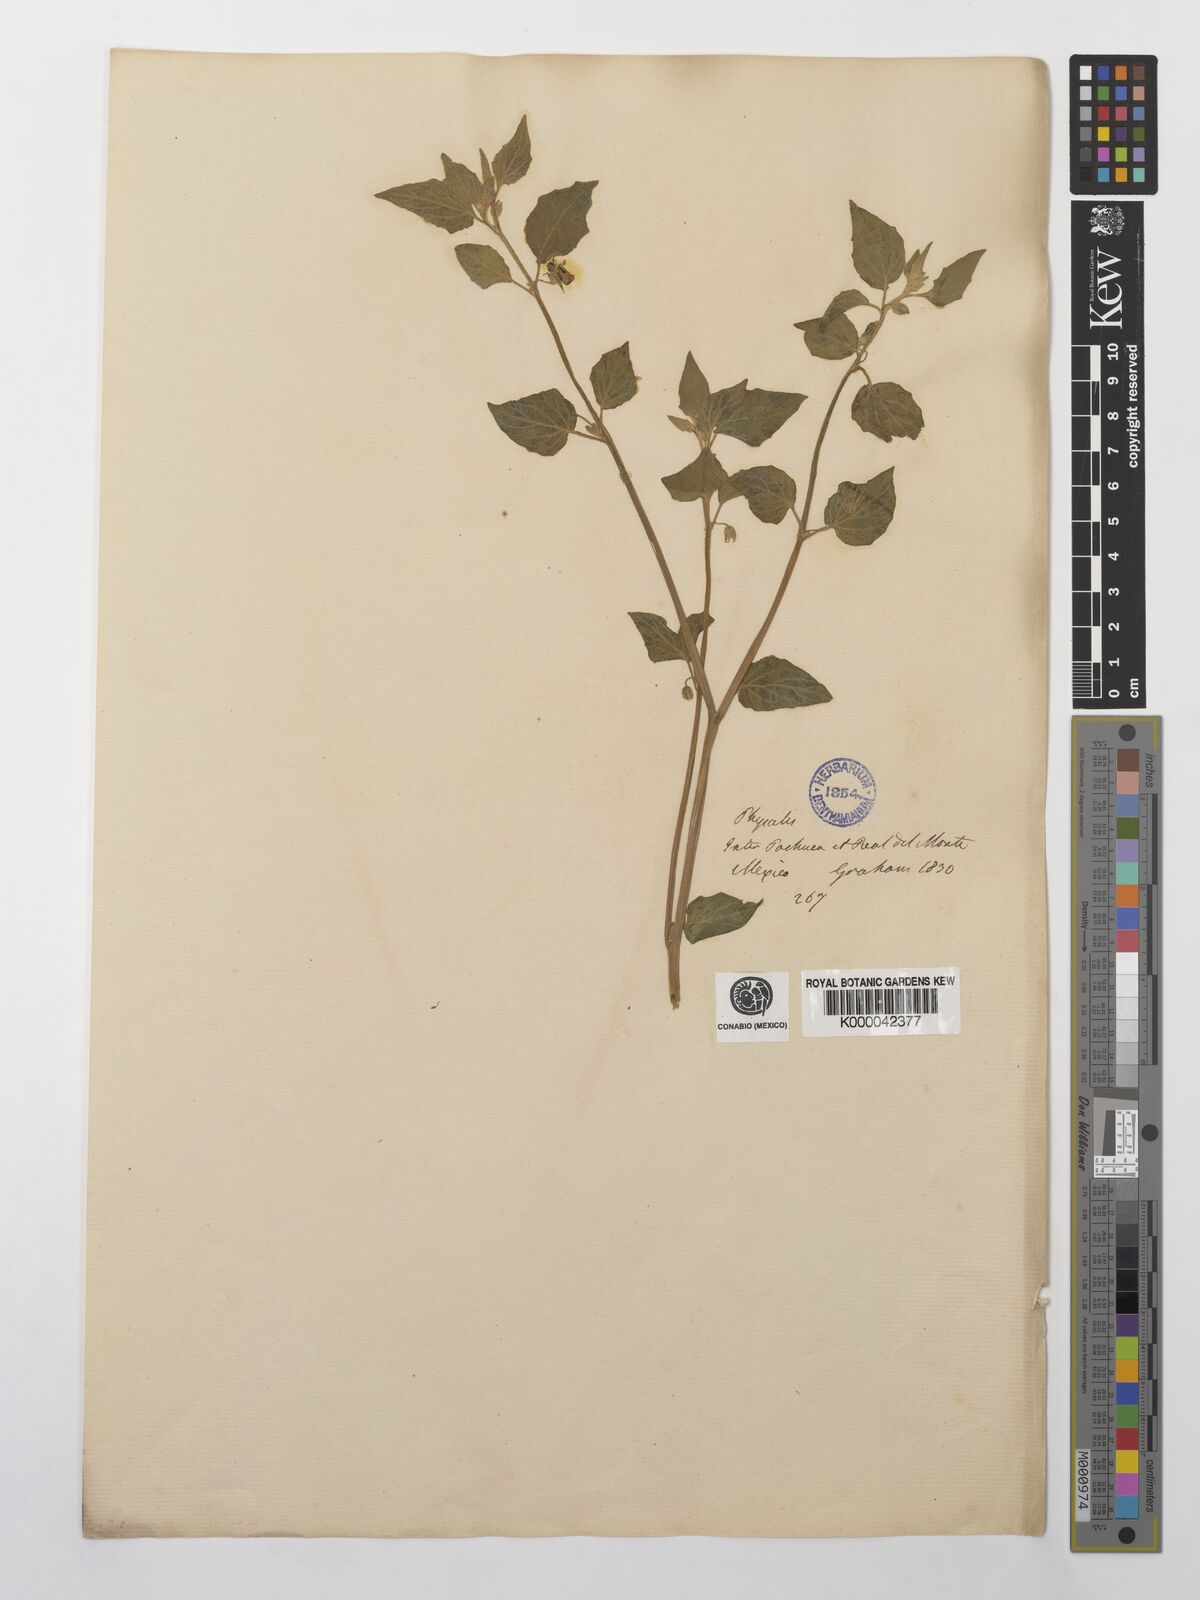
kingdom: Plantae
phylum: Tracheophyta
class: Magnoliopsida
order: Solanales
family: Solanaceae
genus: Physalis
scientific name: Physalis peruviana
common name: Cape-gooseberry
